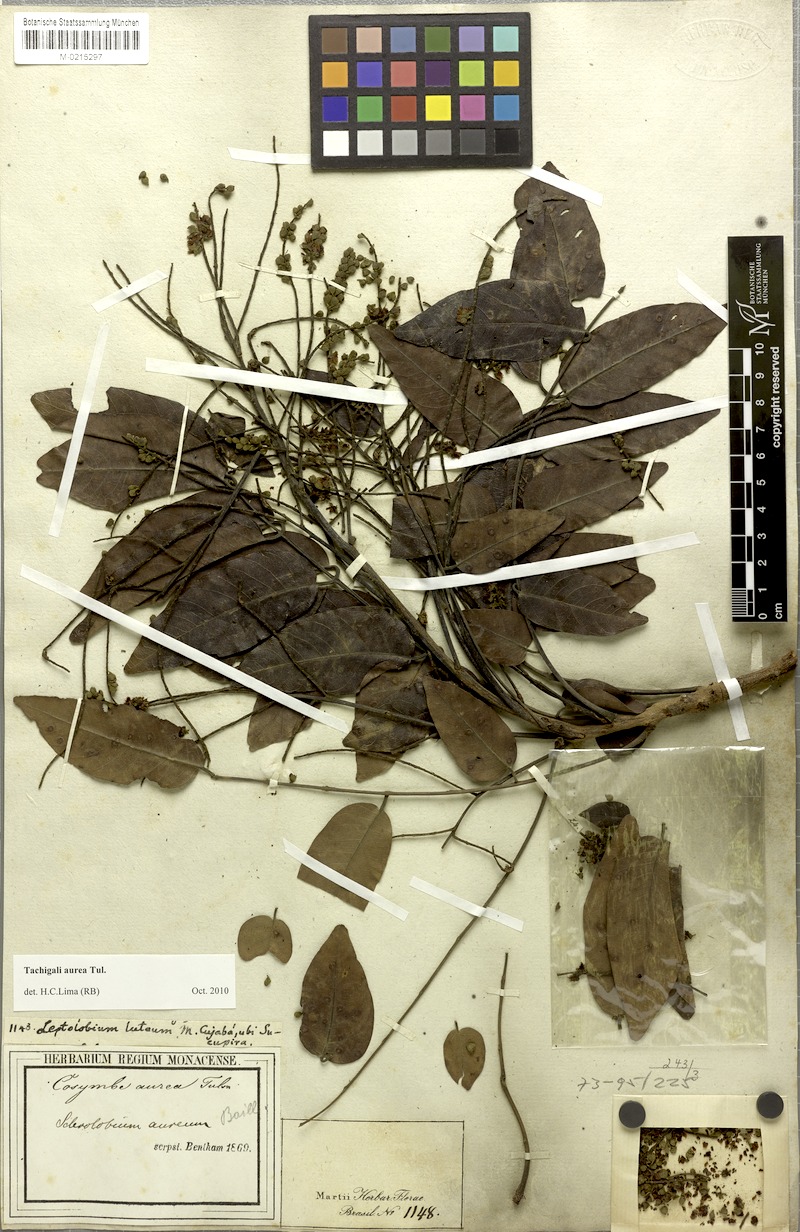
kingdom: Plantae
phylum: Tracheophyta
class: Magnoliopsida
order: Fabales
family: Fabaceae
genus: Tachigali
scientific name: Tachigali aurea
